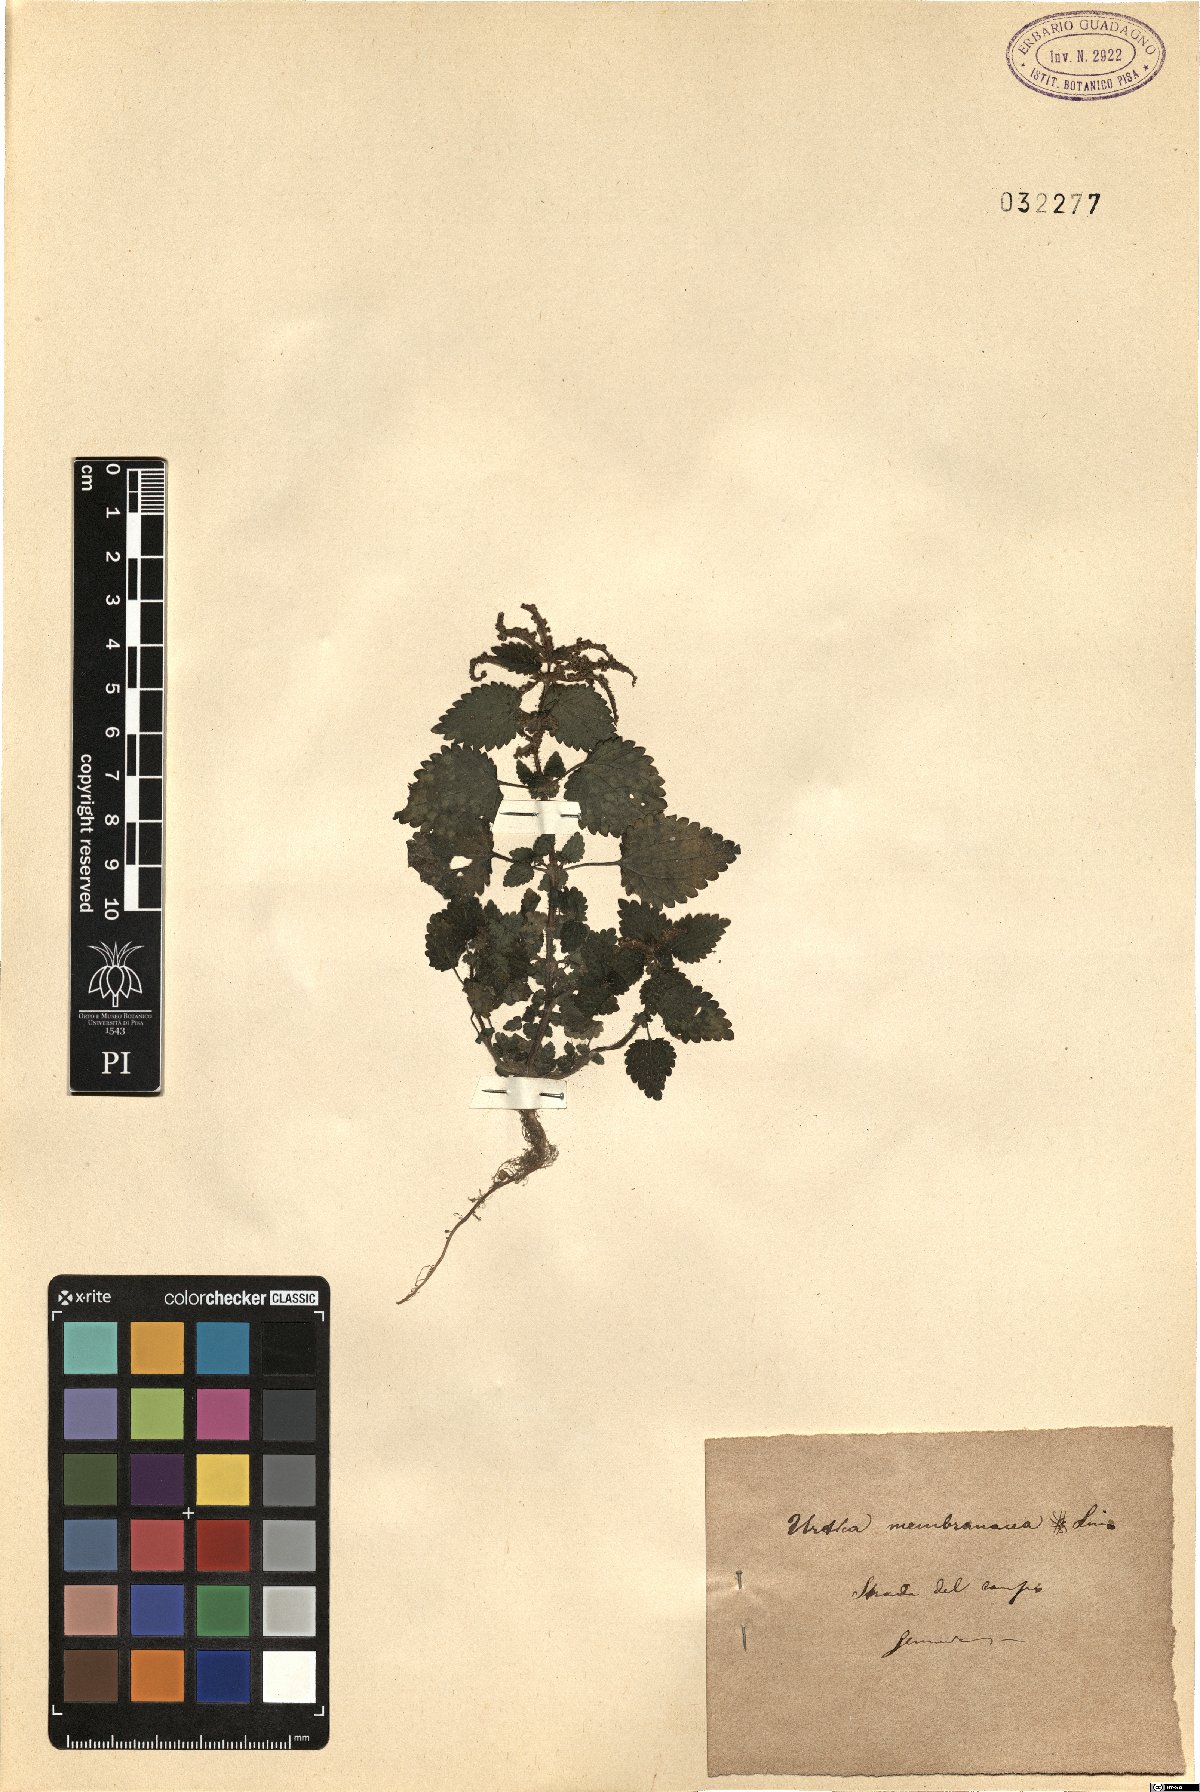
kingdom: Plantae
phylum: Tracheophyta
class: Magnoliopsida
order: Rosales
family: Urticaceae
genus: Urtica
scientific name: Urtica membranacea
